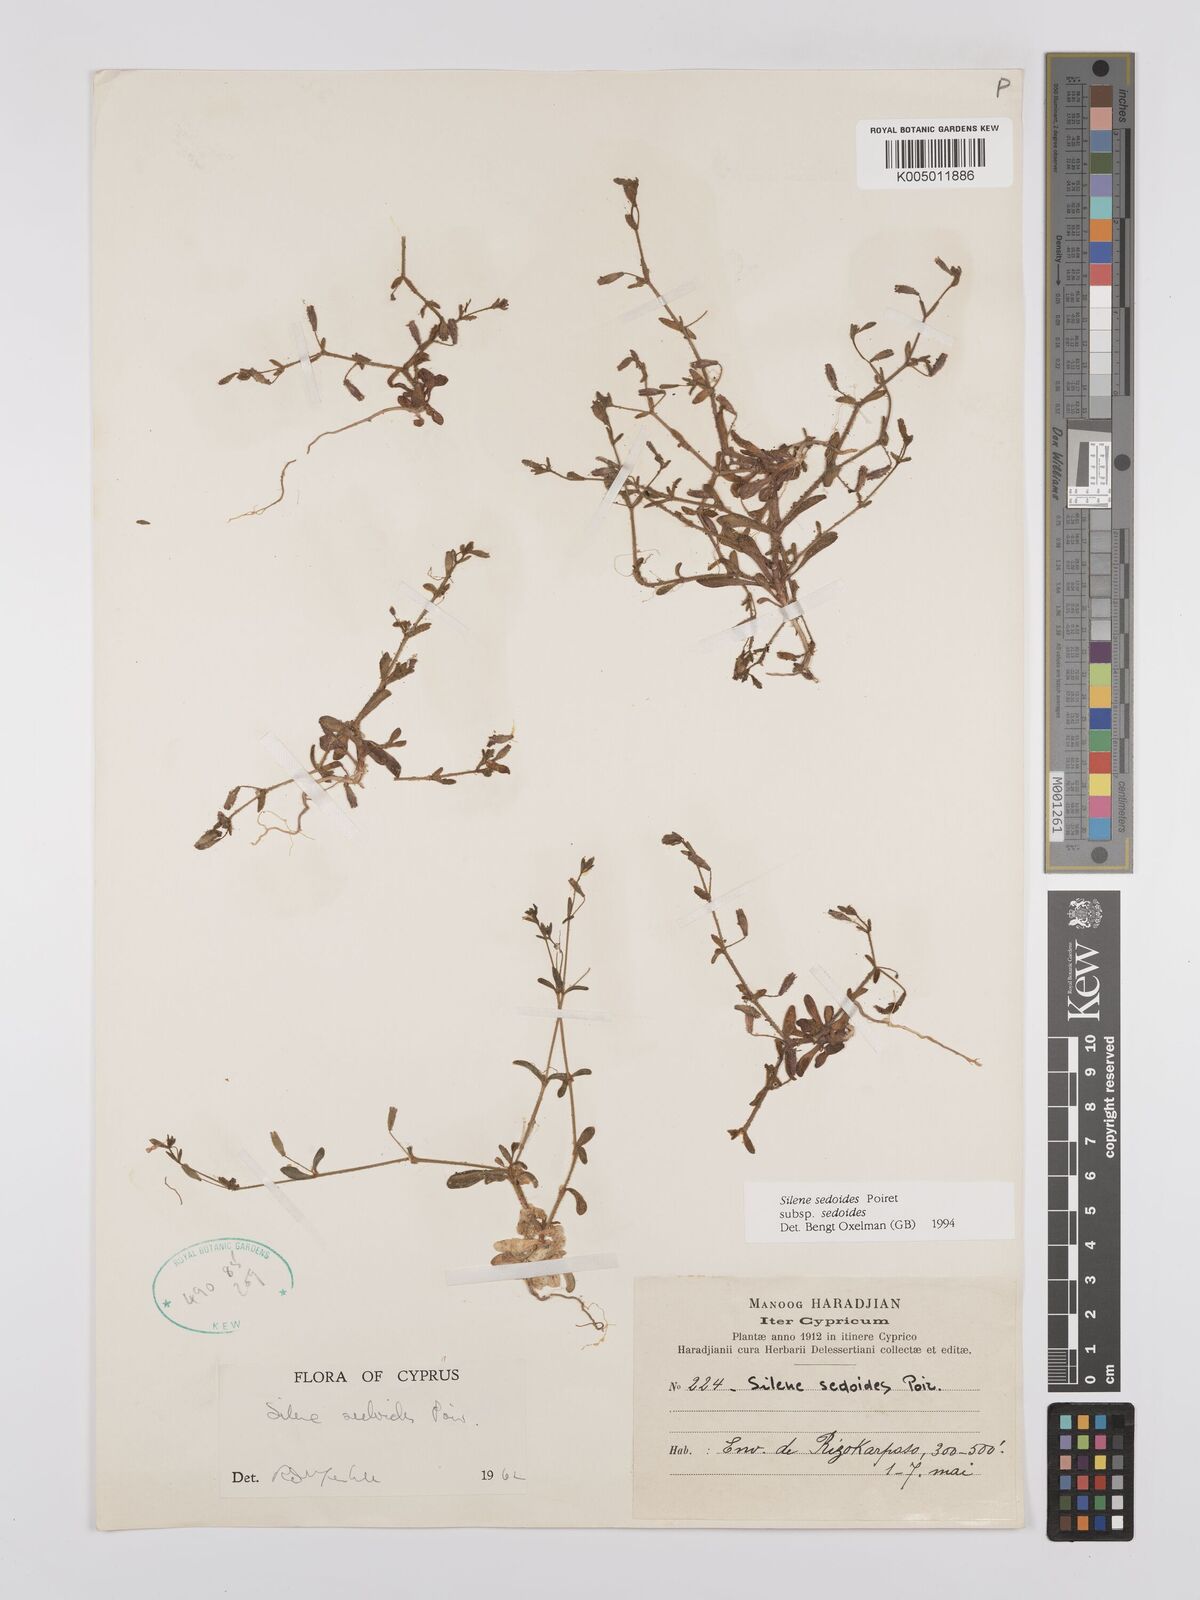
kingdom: Plantae
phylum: Tracheophyta
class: Magnoliopsida
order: Caryophyllales
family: Caryophyllaceae
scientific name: Caryophyllaceae
